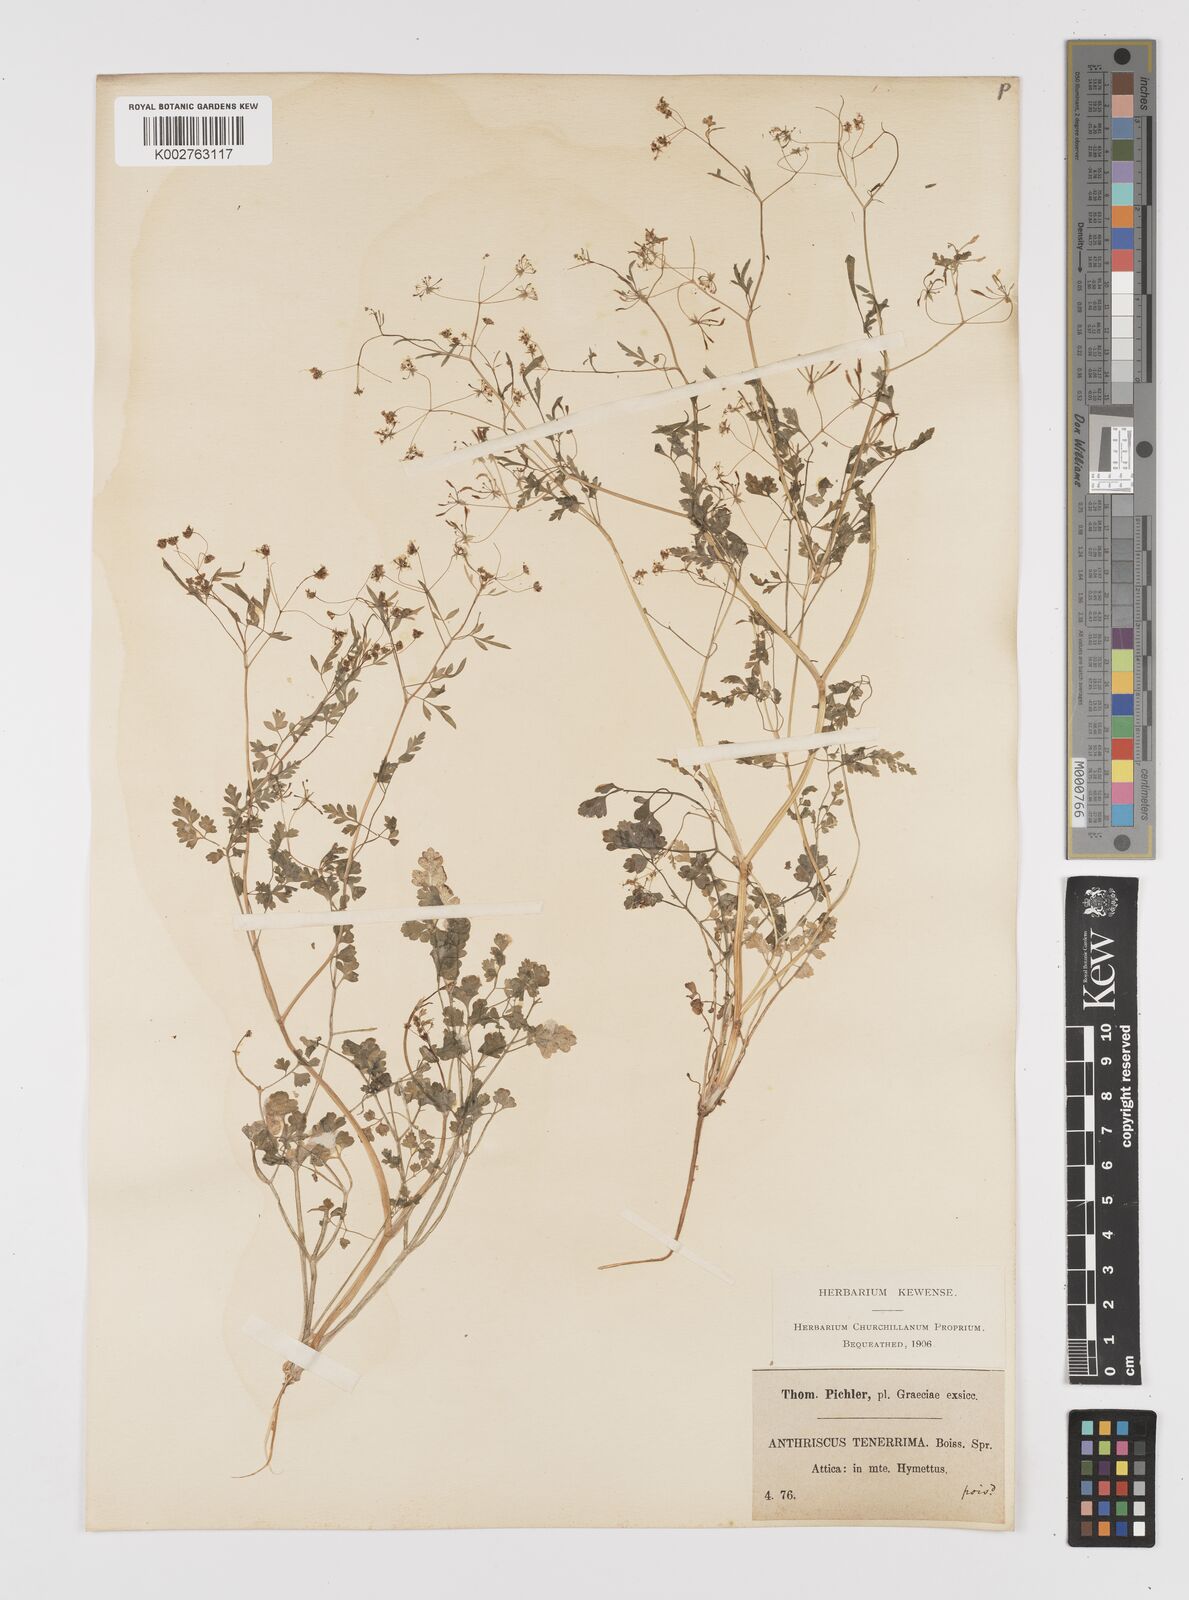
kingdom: Plantae
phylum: Tracheophyta
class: Magnoliopsida
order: Apiales
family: Apiaceae
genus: Anthriscus
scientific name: Anthriscus tenerrima
